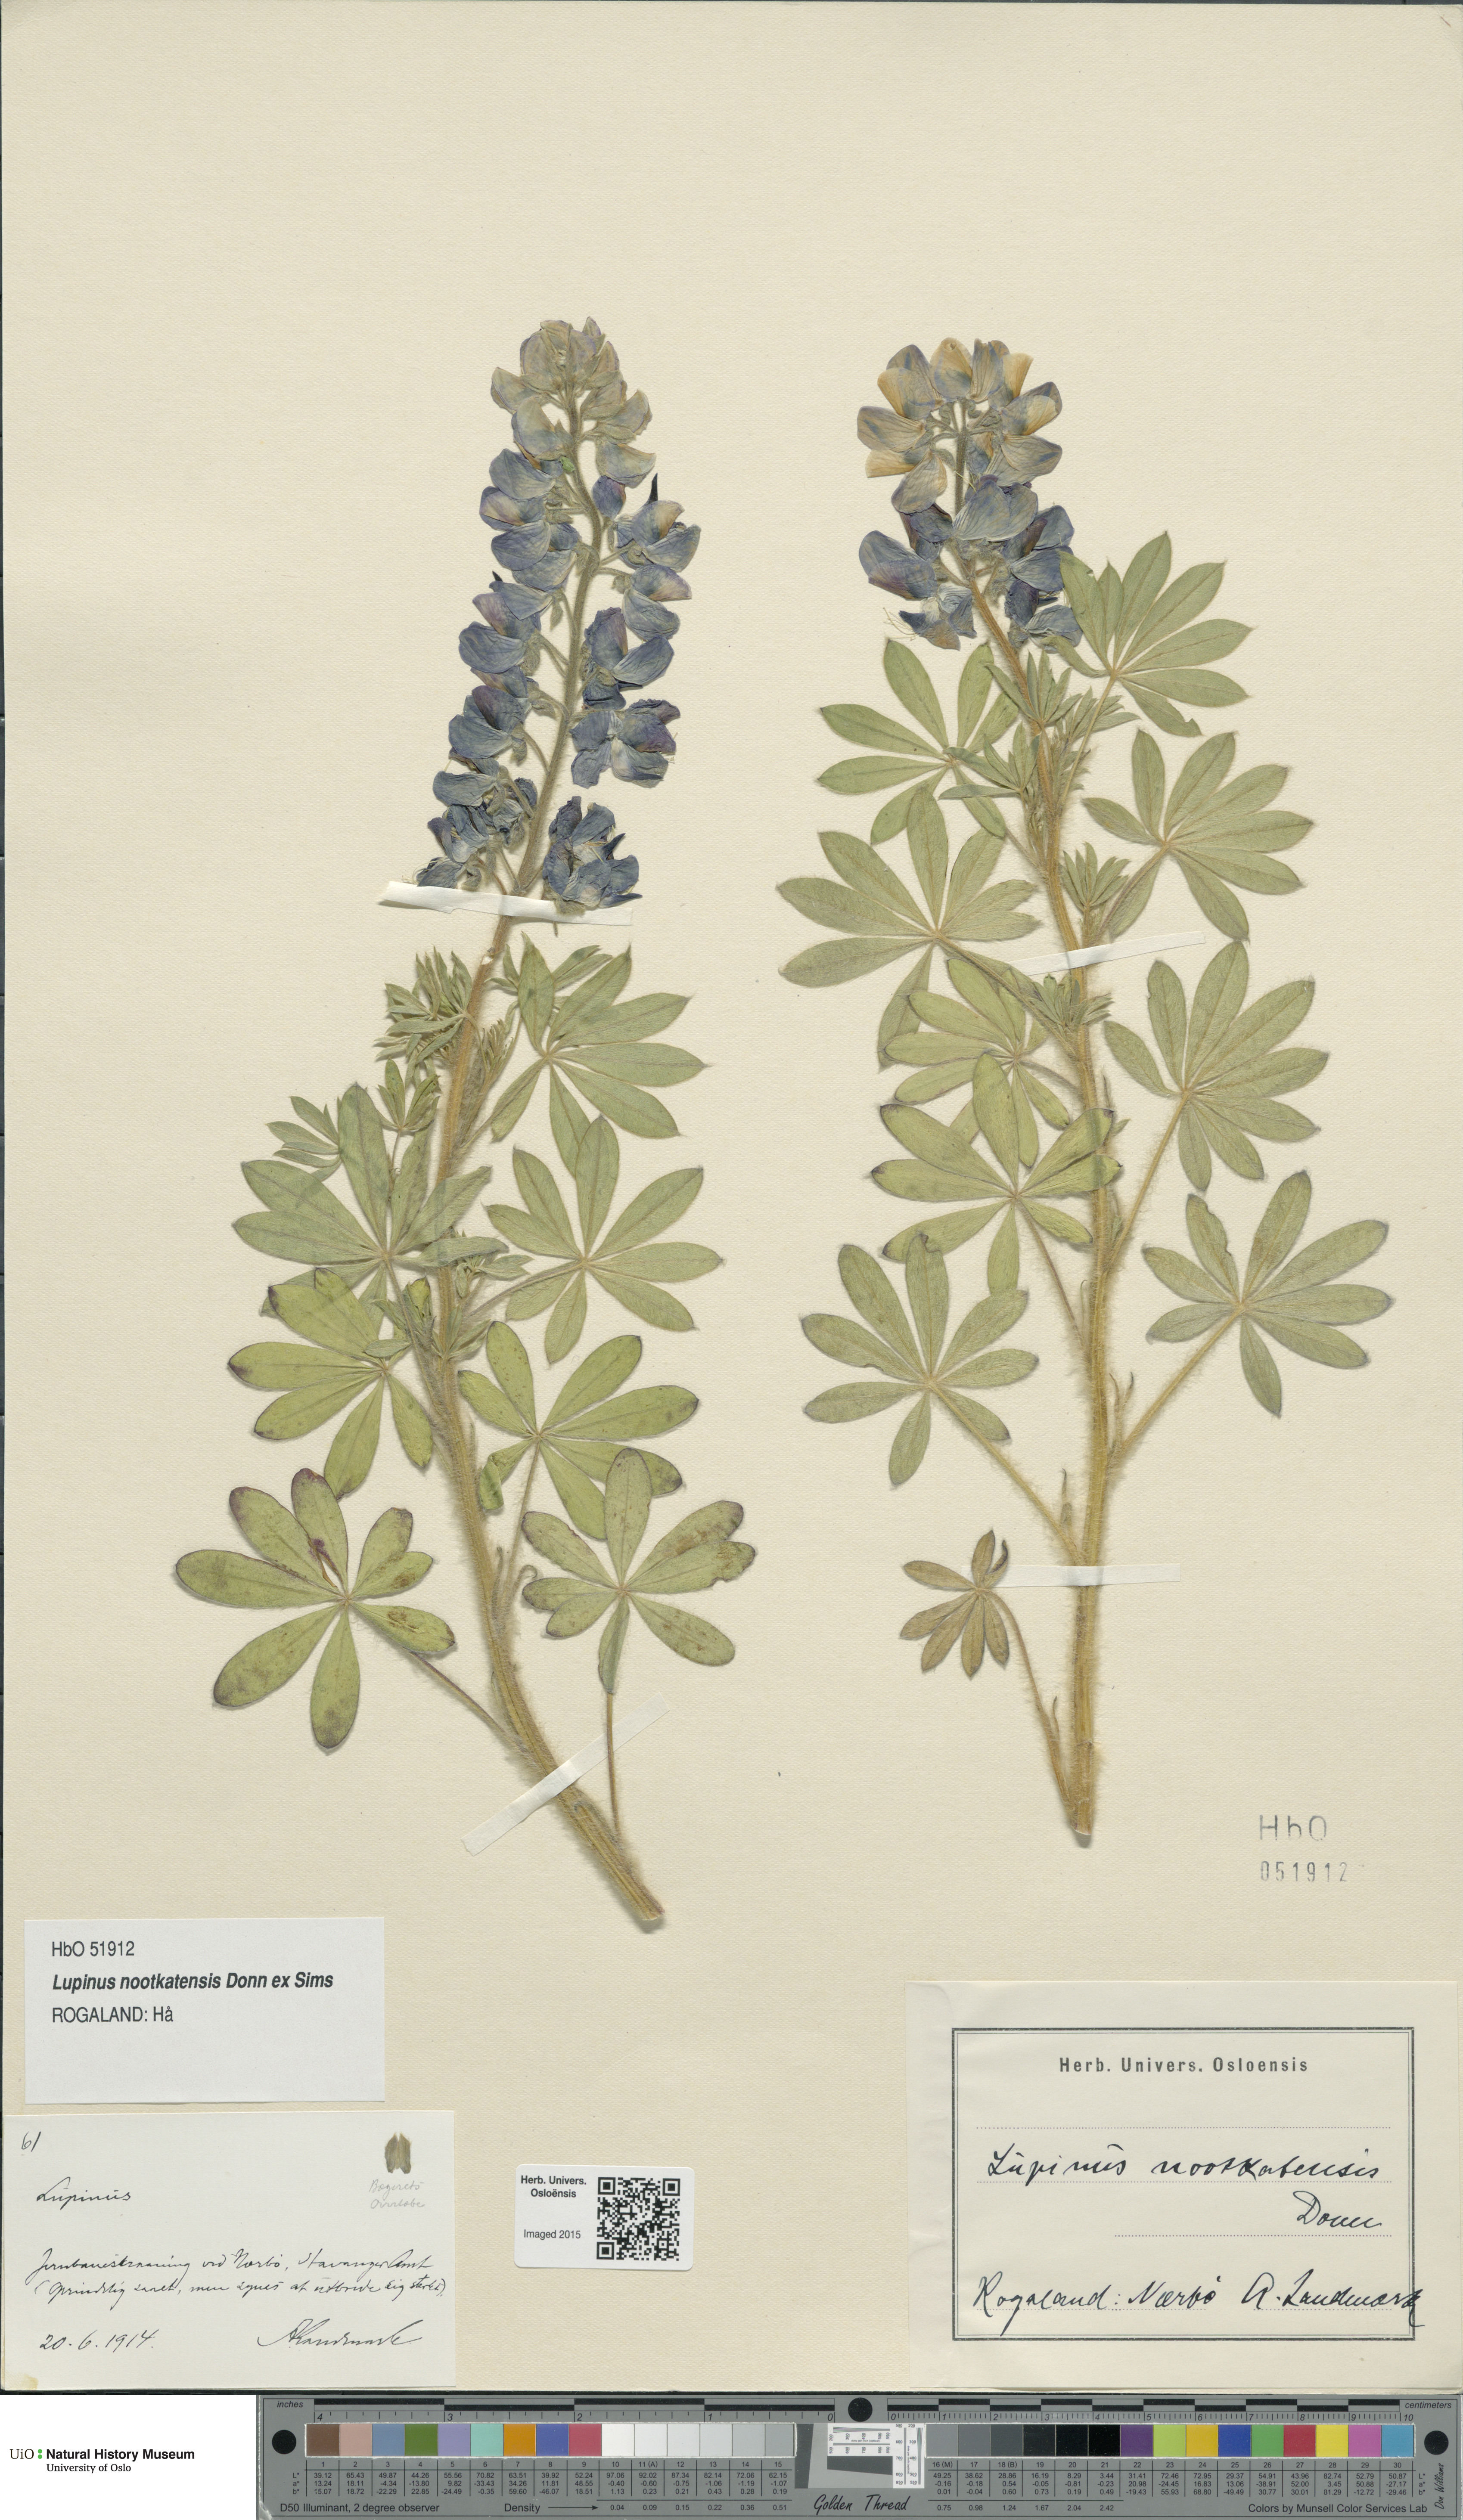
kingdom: Plantae
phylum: Tracheophyta
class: Magnoliopsida
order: Fabales
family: Fabaceae
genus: Lupinus
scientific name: Lupinus nootkatensis
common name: Nootka lupine
